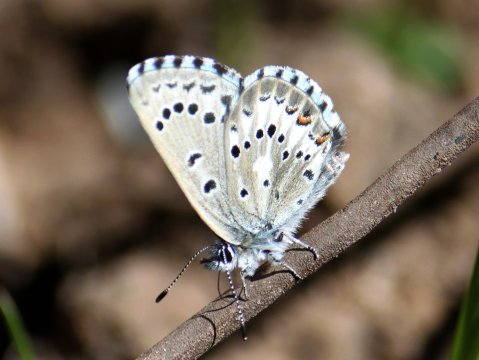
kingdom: Animalia
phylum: Arthropoda
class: Insecta
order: Lepidoptera
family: Lycaenidae
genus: Glaucopsyche
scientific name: Glaucopsyche piasus
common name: Arrowhead Blue
